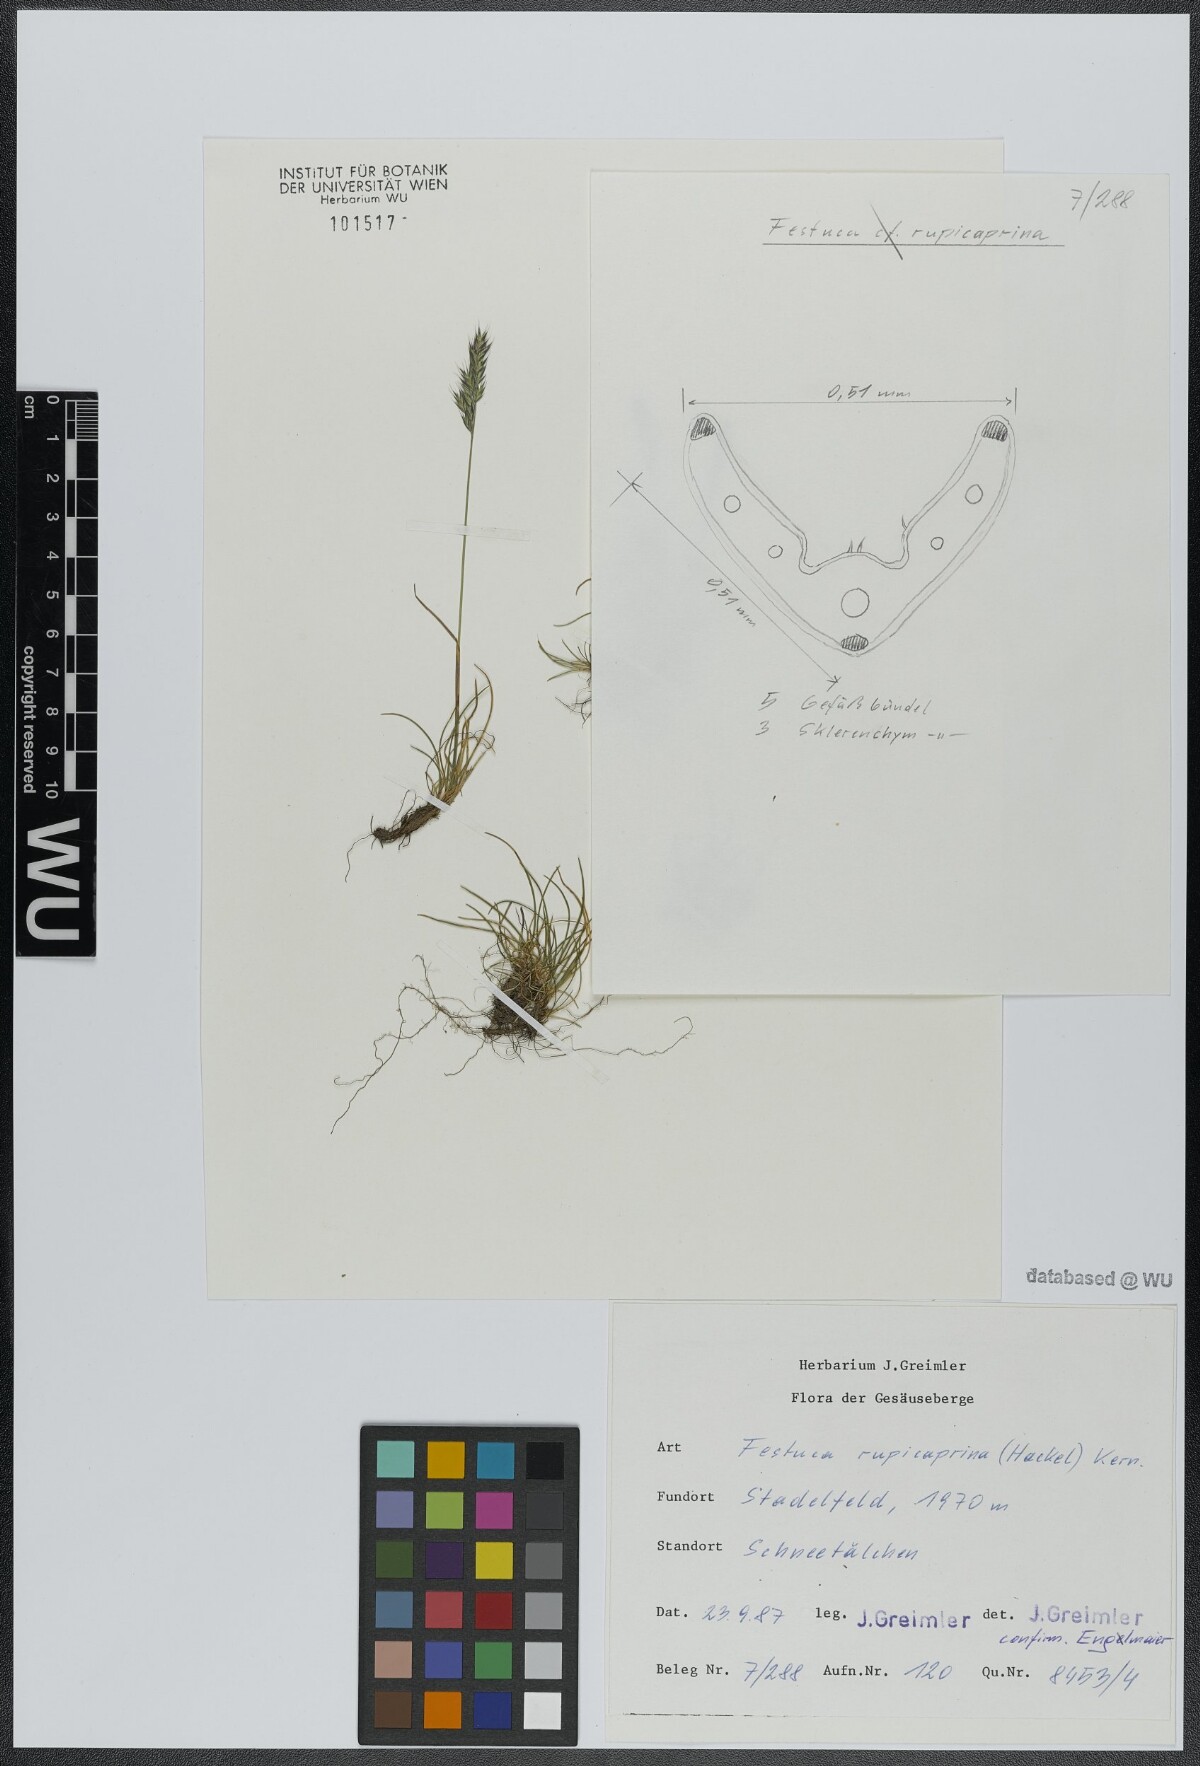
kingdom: Plantae
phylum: Tracheophyta
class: Liliopsida
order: Poales
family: Poaceae
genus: Festuca
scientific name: Festuca rupicaprina
